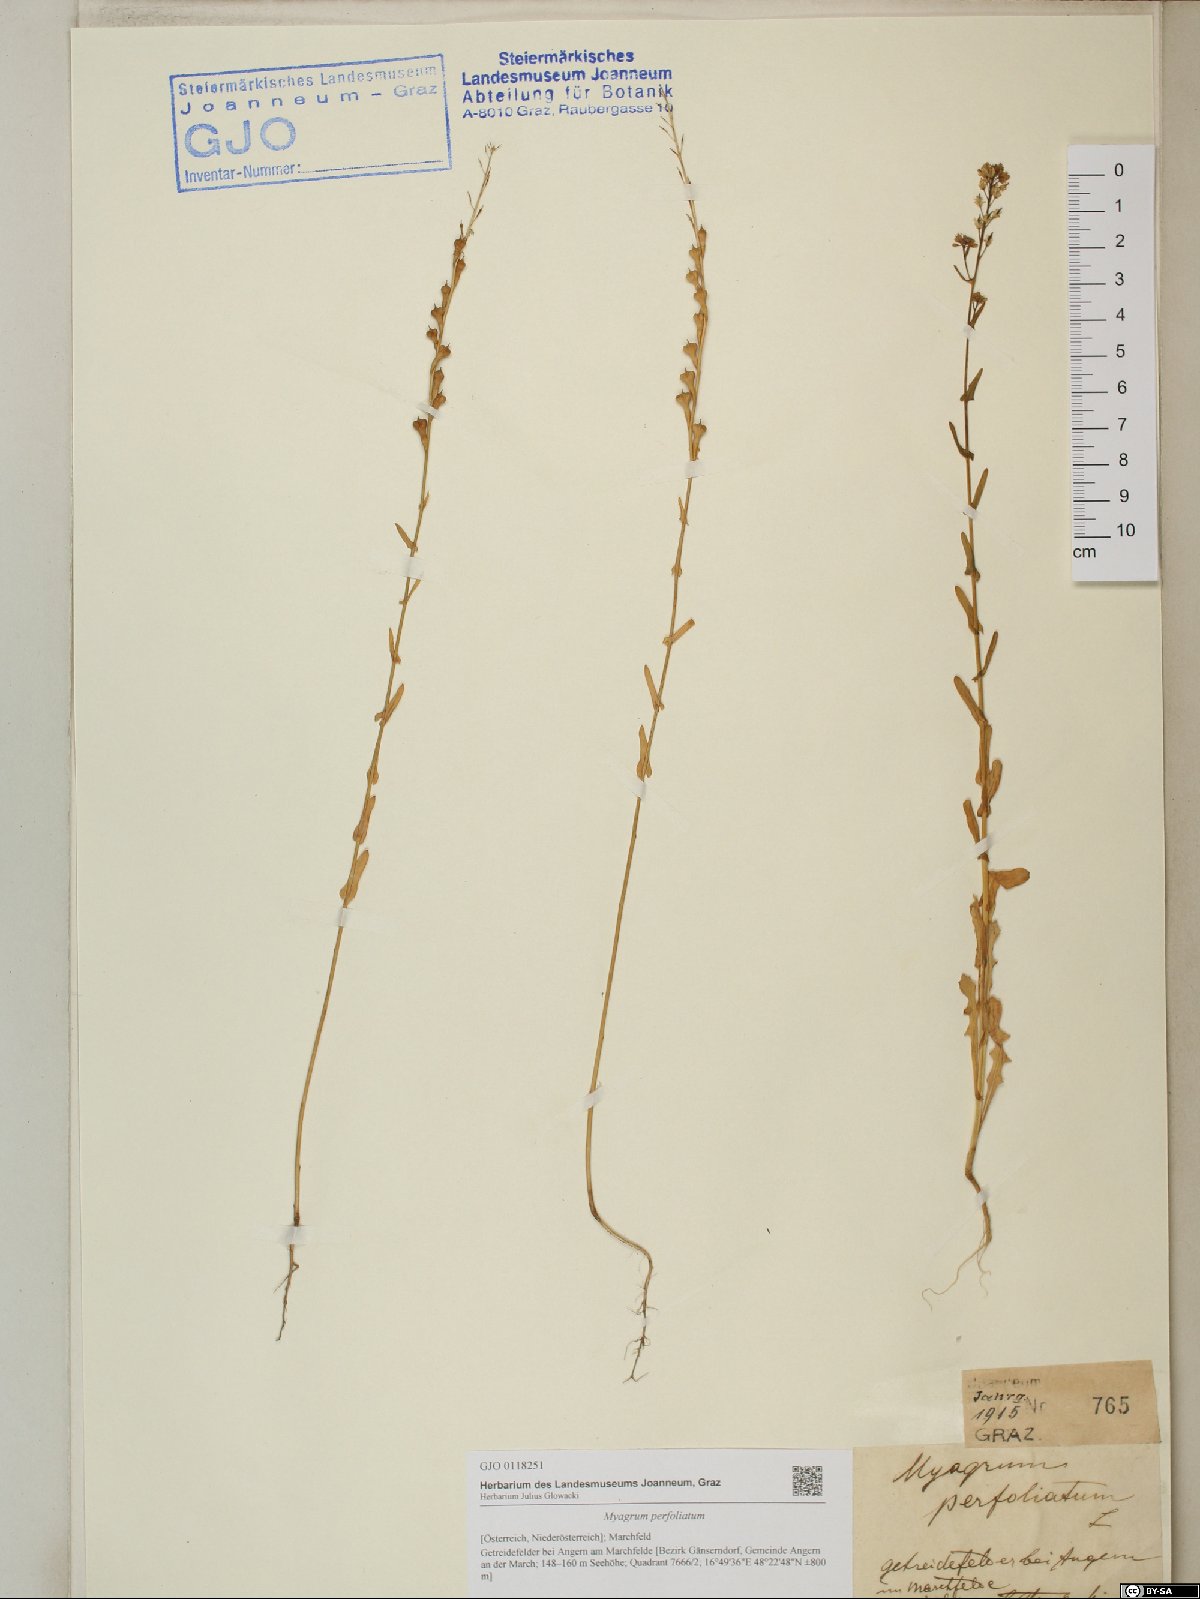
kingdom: Plantae
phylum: Tracheophyta
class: Magnoliopsida
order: Brassicales
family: Brassicaceae
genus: Myagrum
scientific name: Myagrum perfoliatum
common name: Mitre cress
